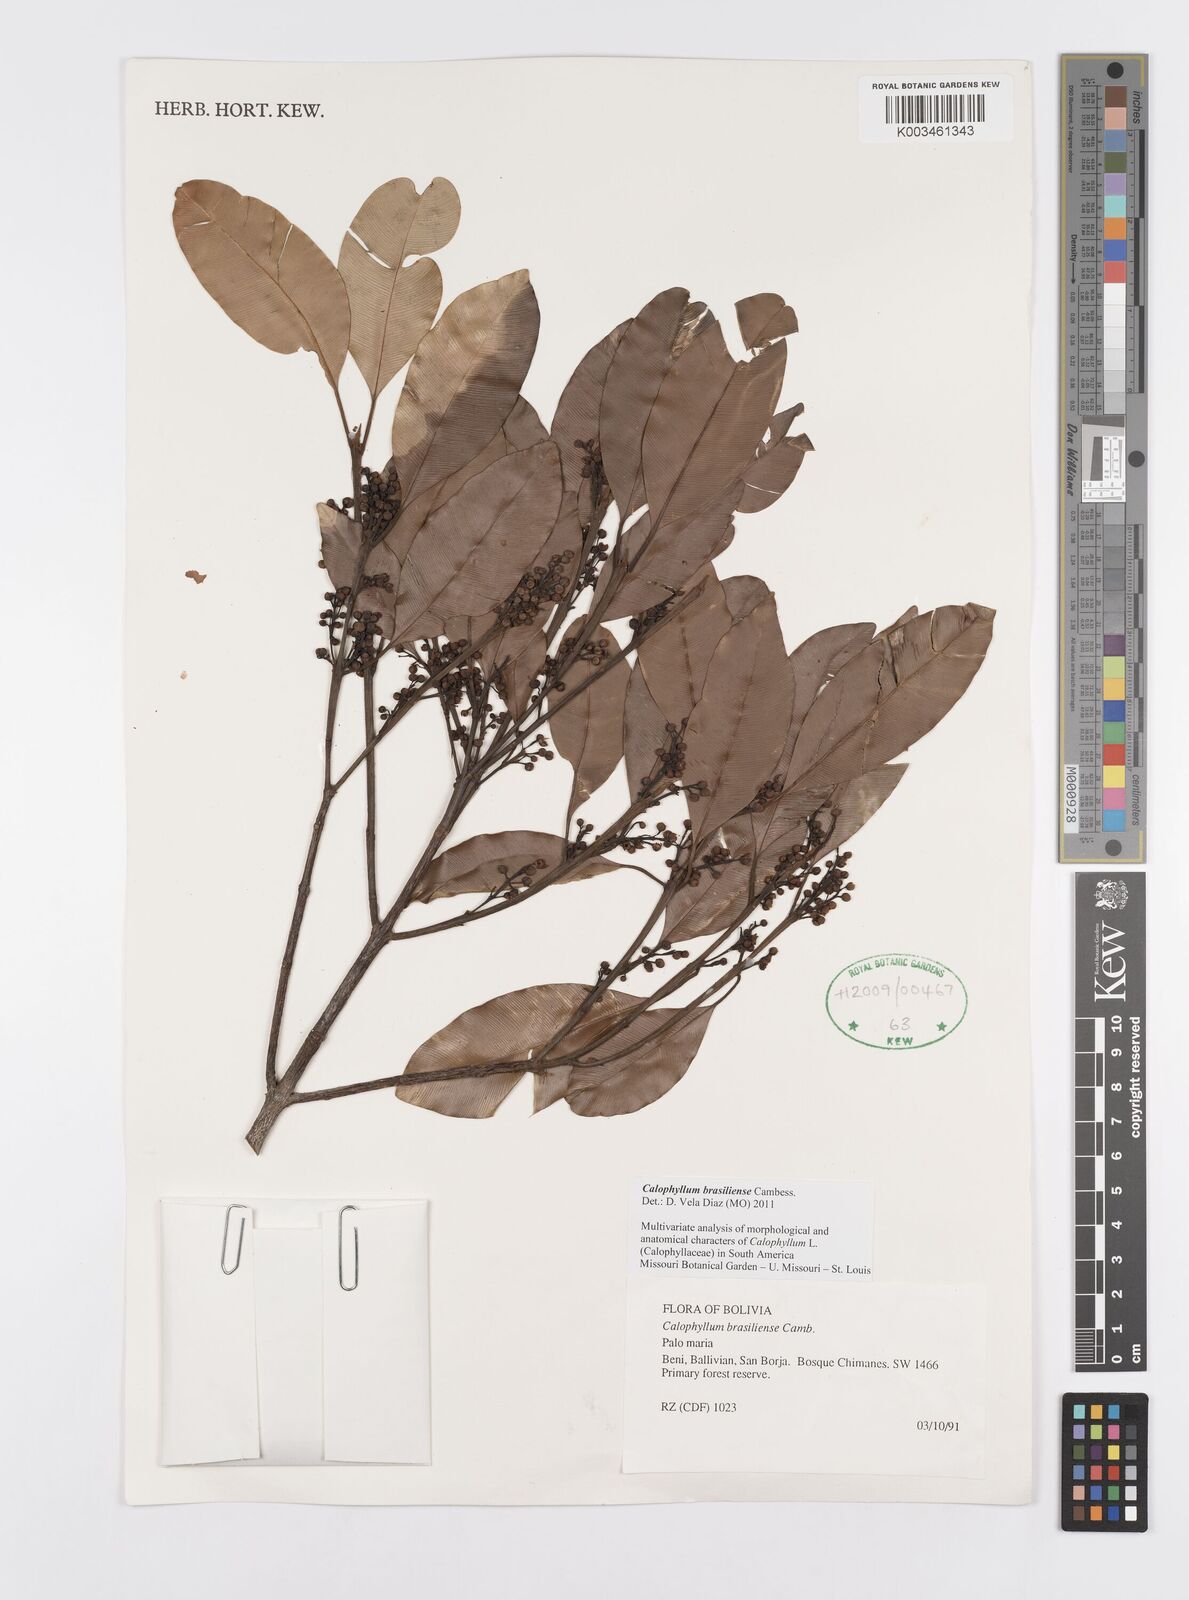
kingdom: Plantae
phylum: Tracheophyta
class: Magnoliopsida
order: Malpighiales
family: Calophyllaceae
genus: Calophyllum
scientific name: Calophyllum brasiliense
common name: Santa maria
